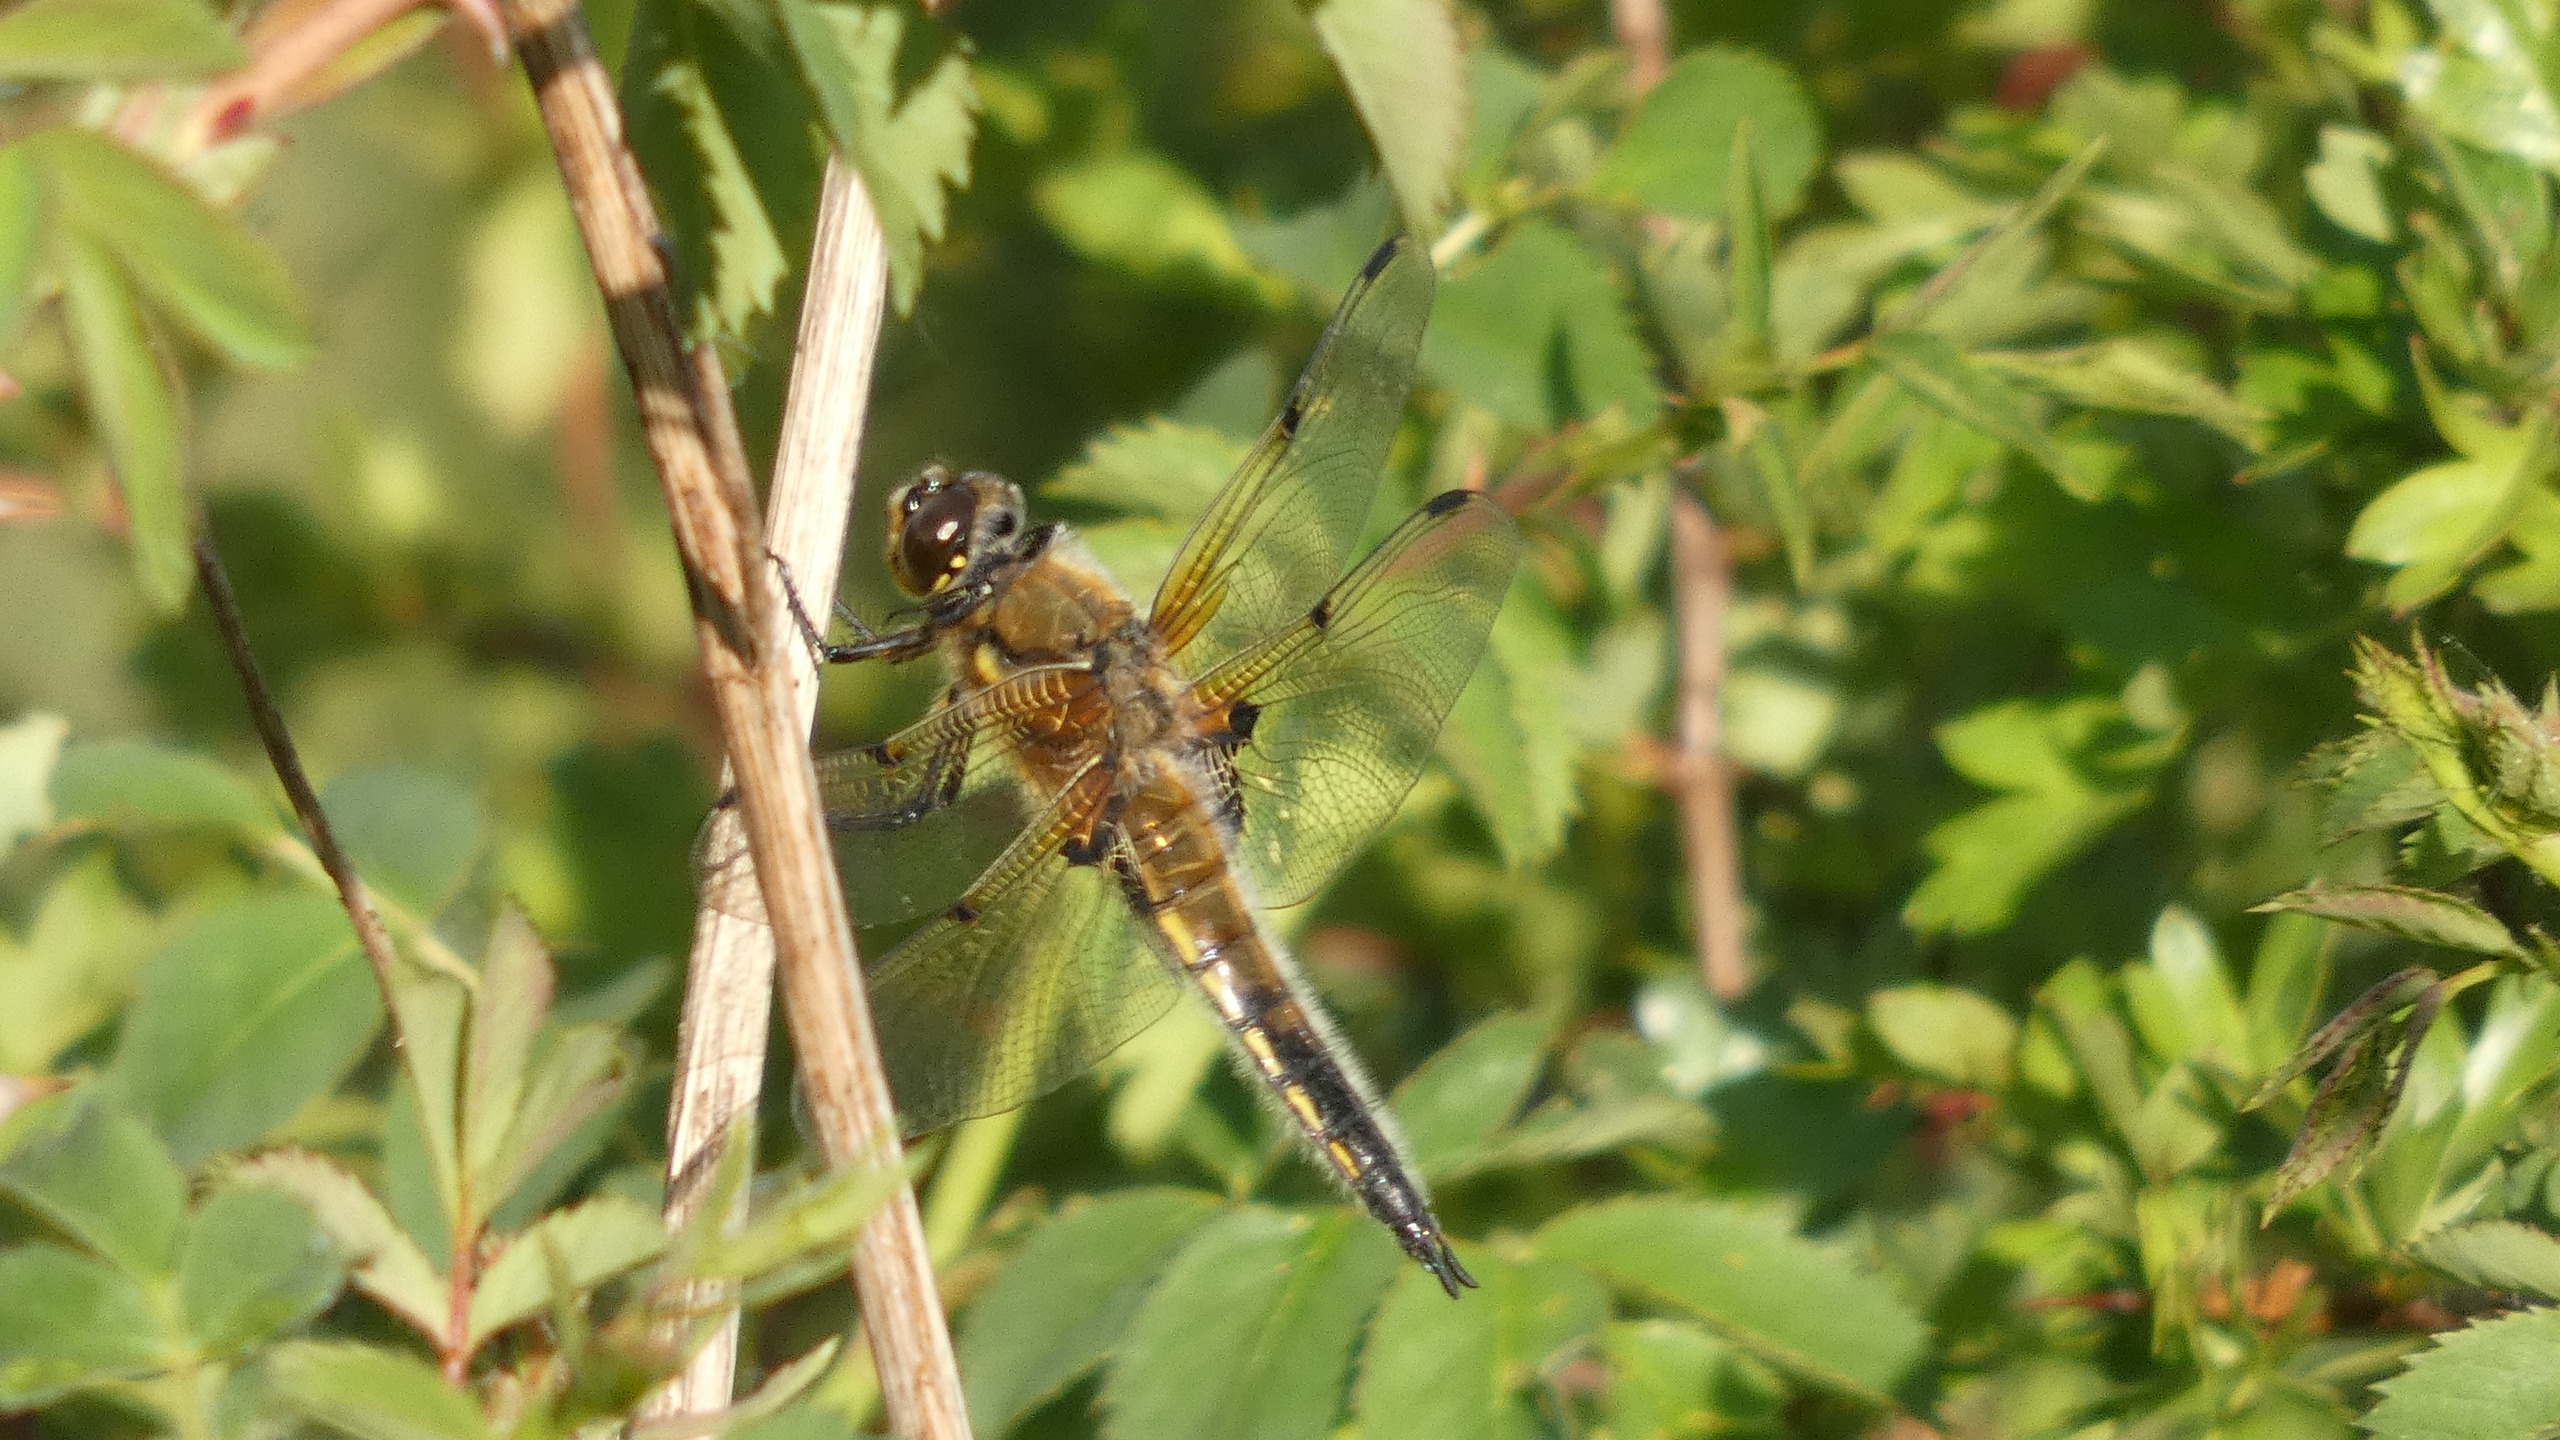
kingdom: Animalia
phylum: Arthropoda
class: Insecta
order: Odonata
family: Libellulidae
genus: Libellula
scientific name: Libellula quadrimaculata
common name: Fireplettet libel
